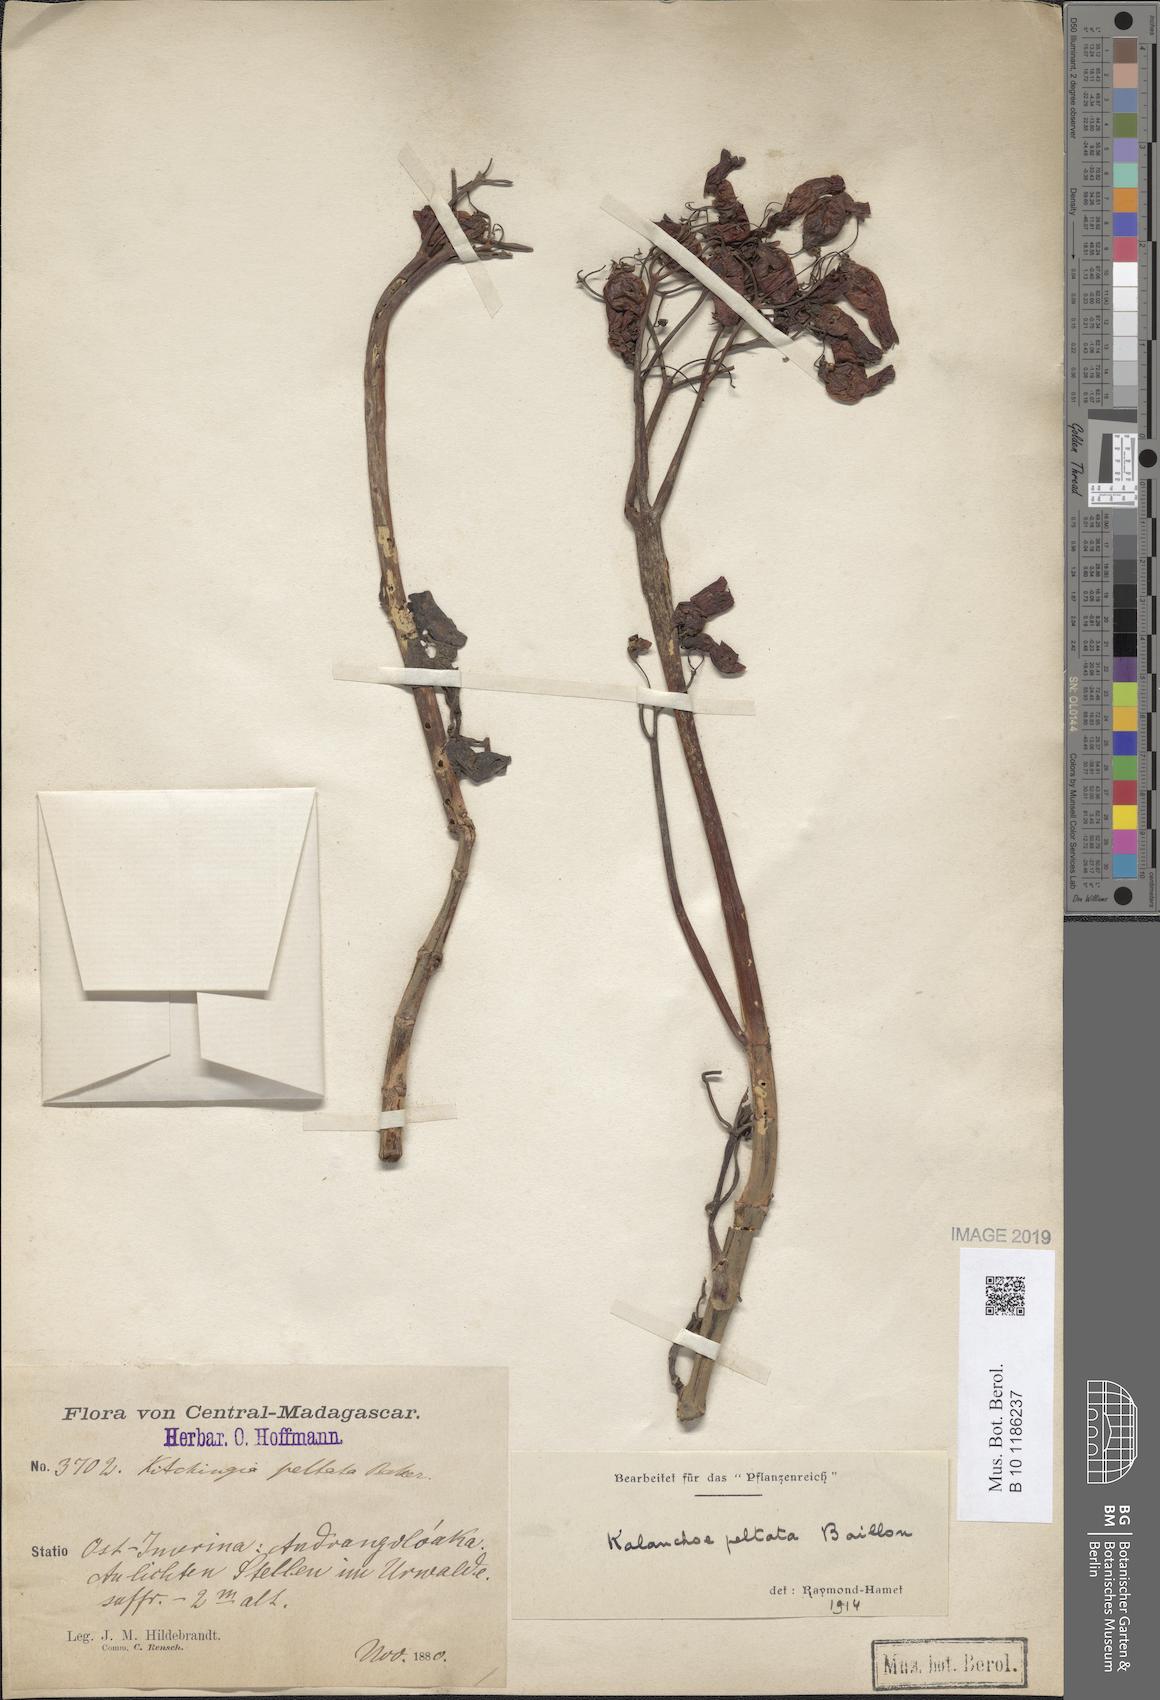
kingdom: Plantae
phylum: Tracheophyta
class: Magnoliopsida
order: Saxifragales
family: Crassulaceae
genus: Kalanchoe
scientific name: Kalanchoe peltata
